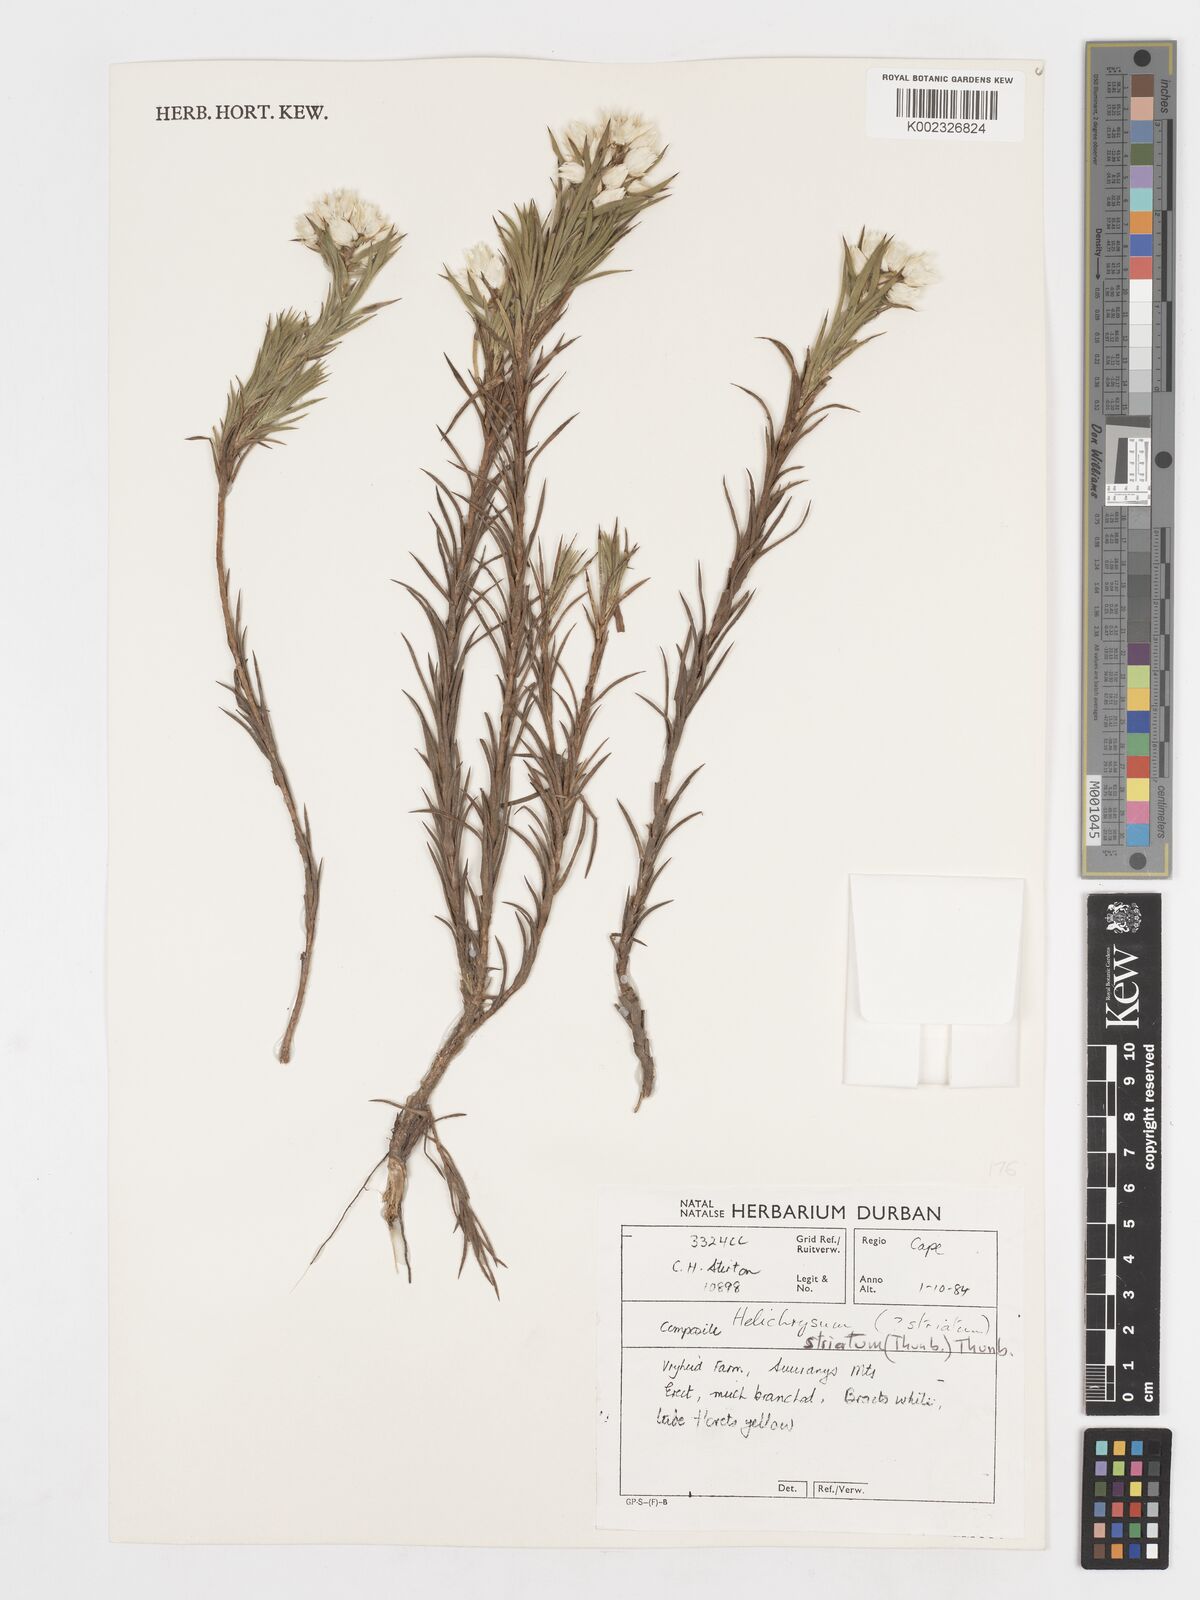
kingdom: Plantae
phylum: Tracheophyta
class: Magnoliopsida
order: Asterales
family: Asteraceae
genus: Achyranthemum
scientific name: Achyranthemum striatum
